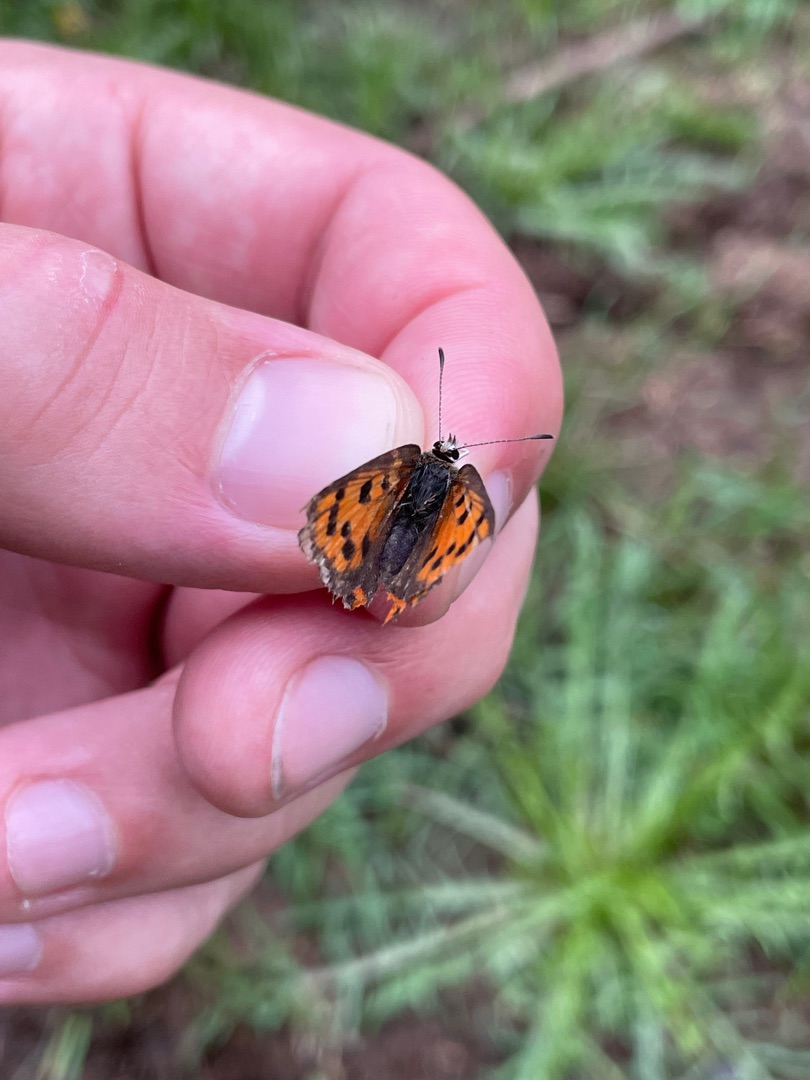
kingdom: Animalia
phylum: Arthropoda
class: Insecta
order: Lepidoptera
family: Lycaenidae
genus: Lycaena
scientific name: Lycaena phlaeas
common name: Lille ildfugl
